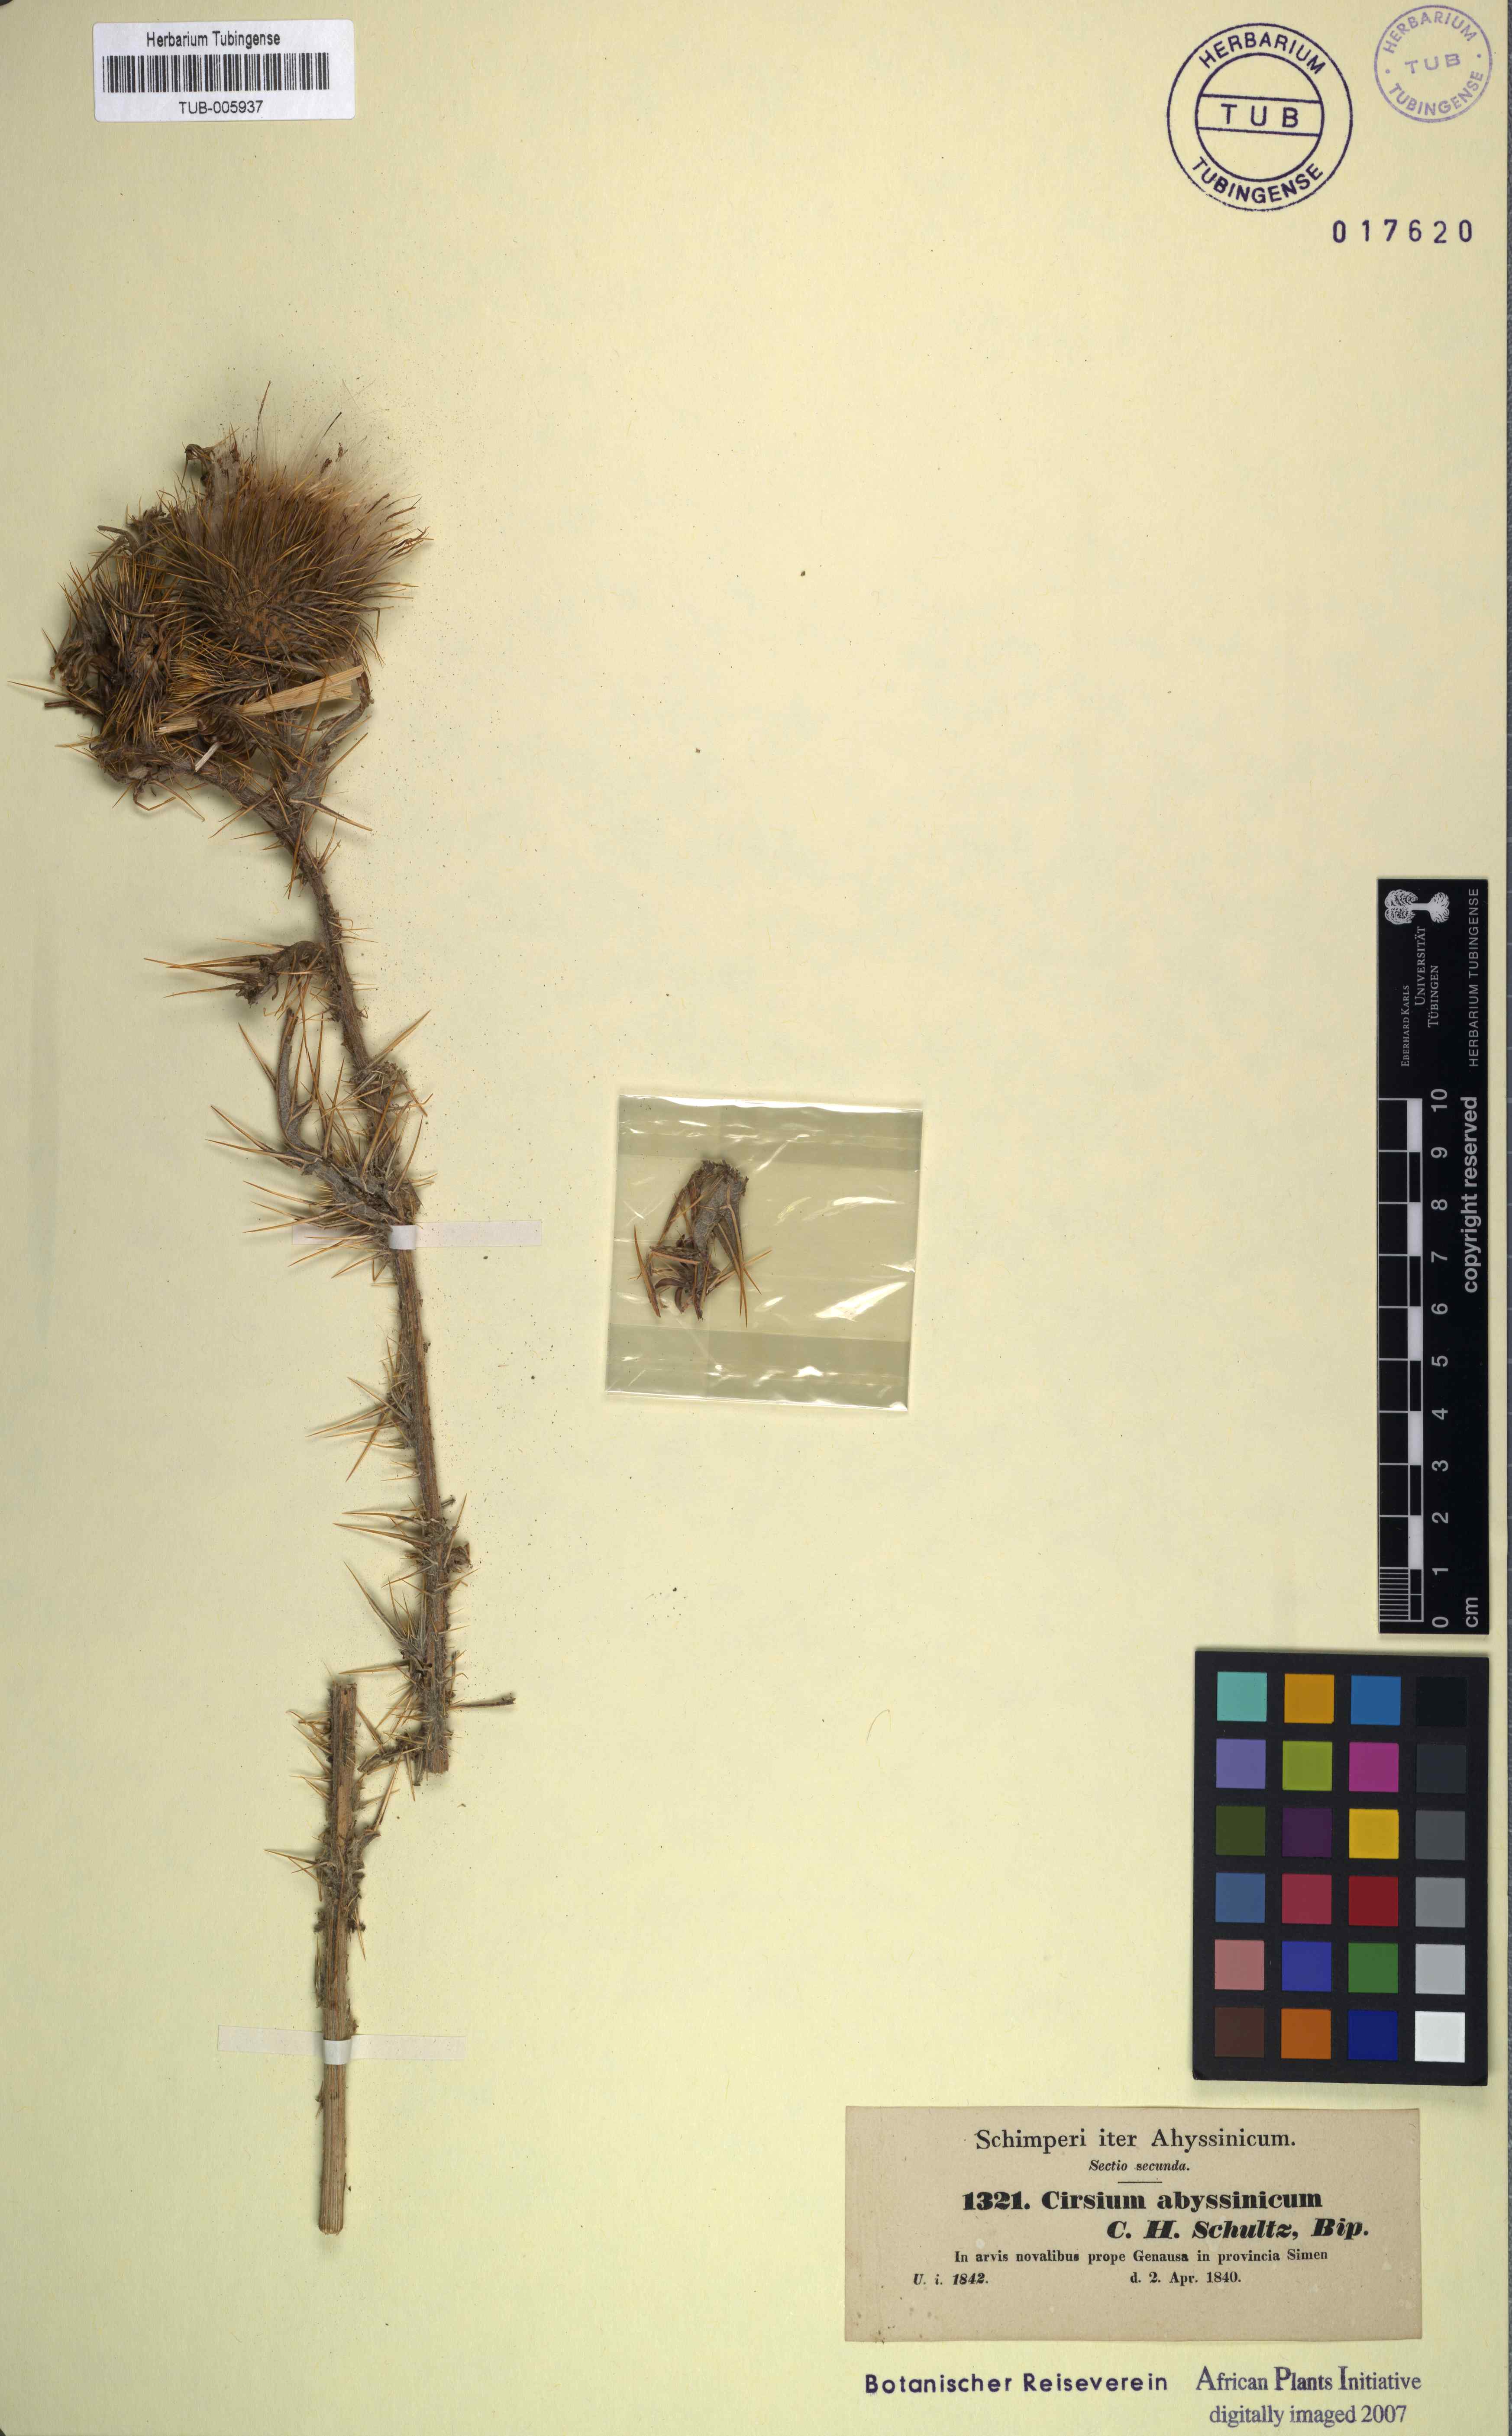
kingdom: Plantae
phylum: Tracheophyta
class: Magnoliopsida
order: Asterales
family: Asteraceae
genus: Cirsium
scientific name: Cirsium vulgare
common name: Bull thistle
